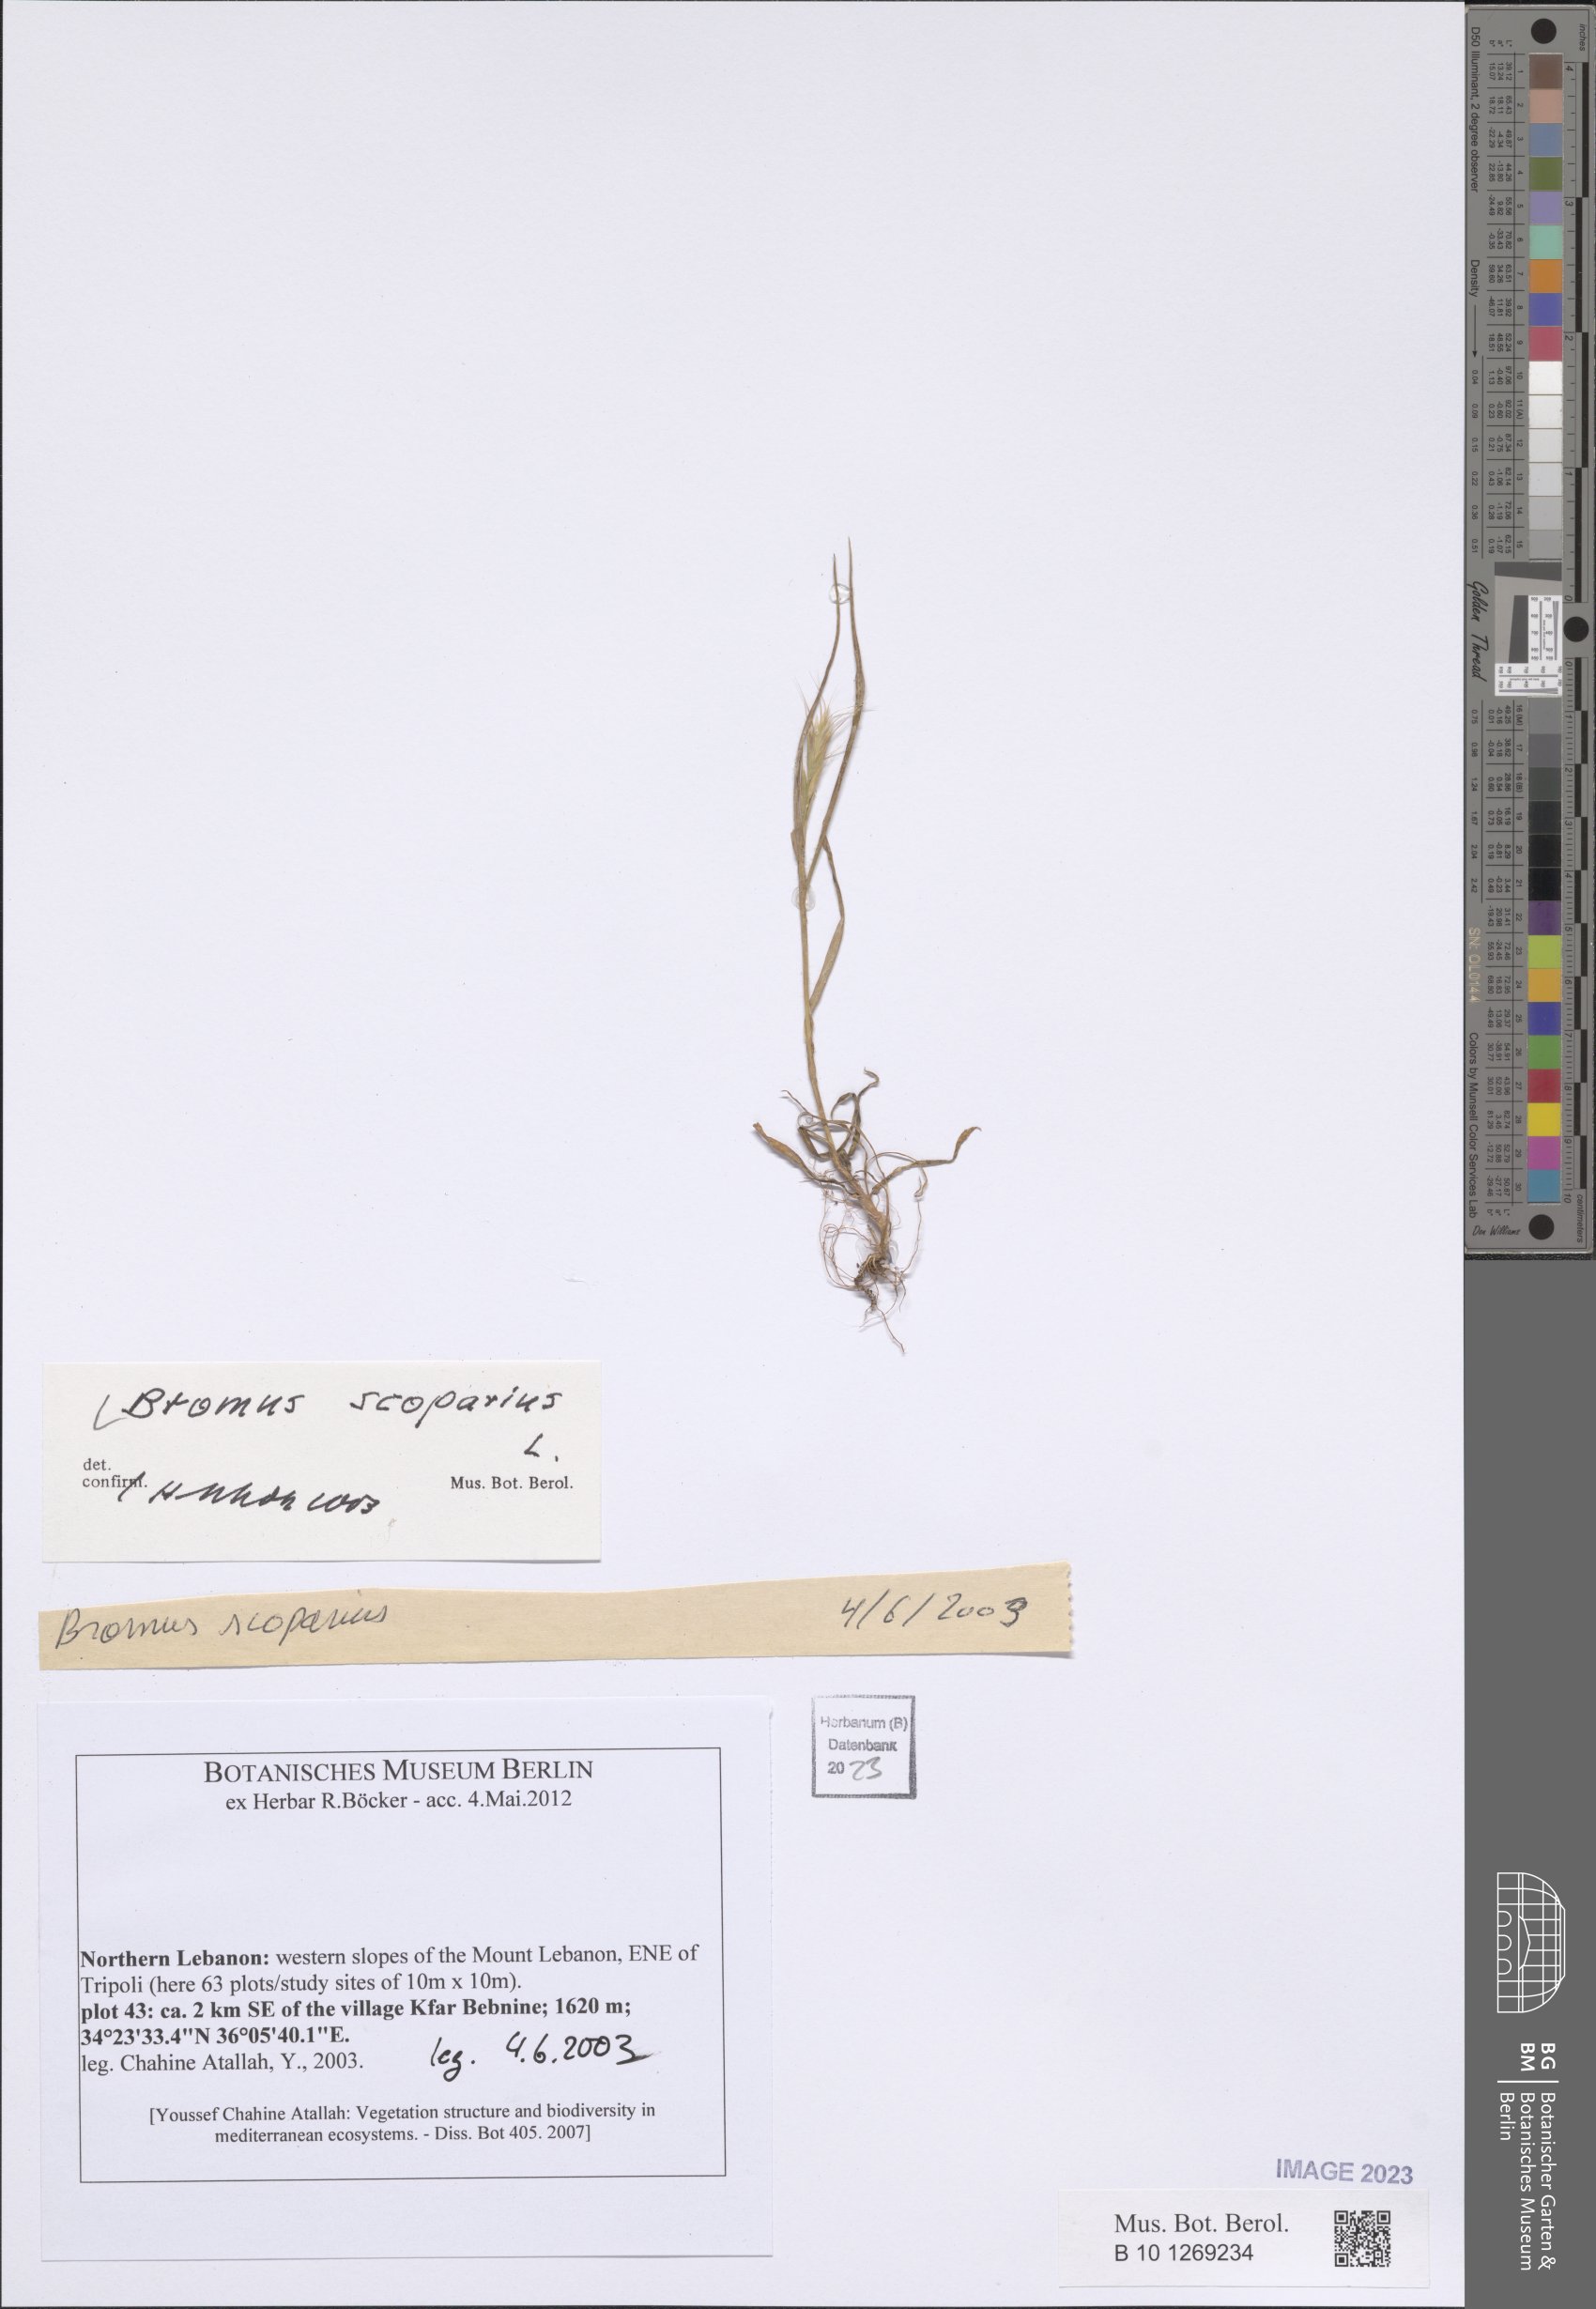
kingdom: Plantae
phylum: Tracheophyta
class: Liliopsida
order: Poales
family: Poaceae
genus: Bromus
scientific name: Bromus scoparius
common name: Broom brome
